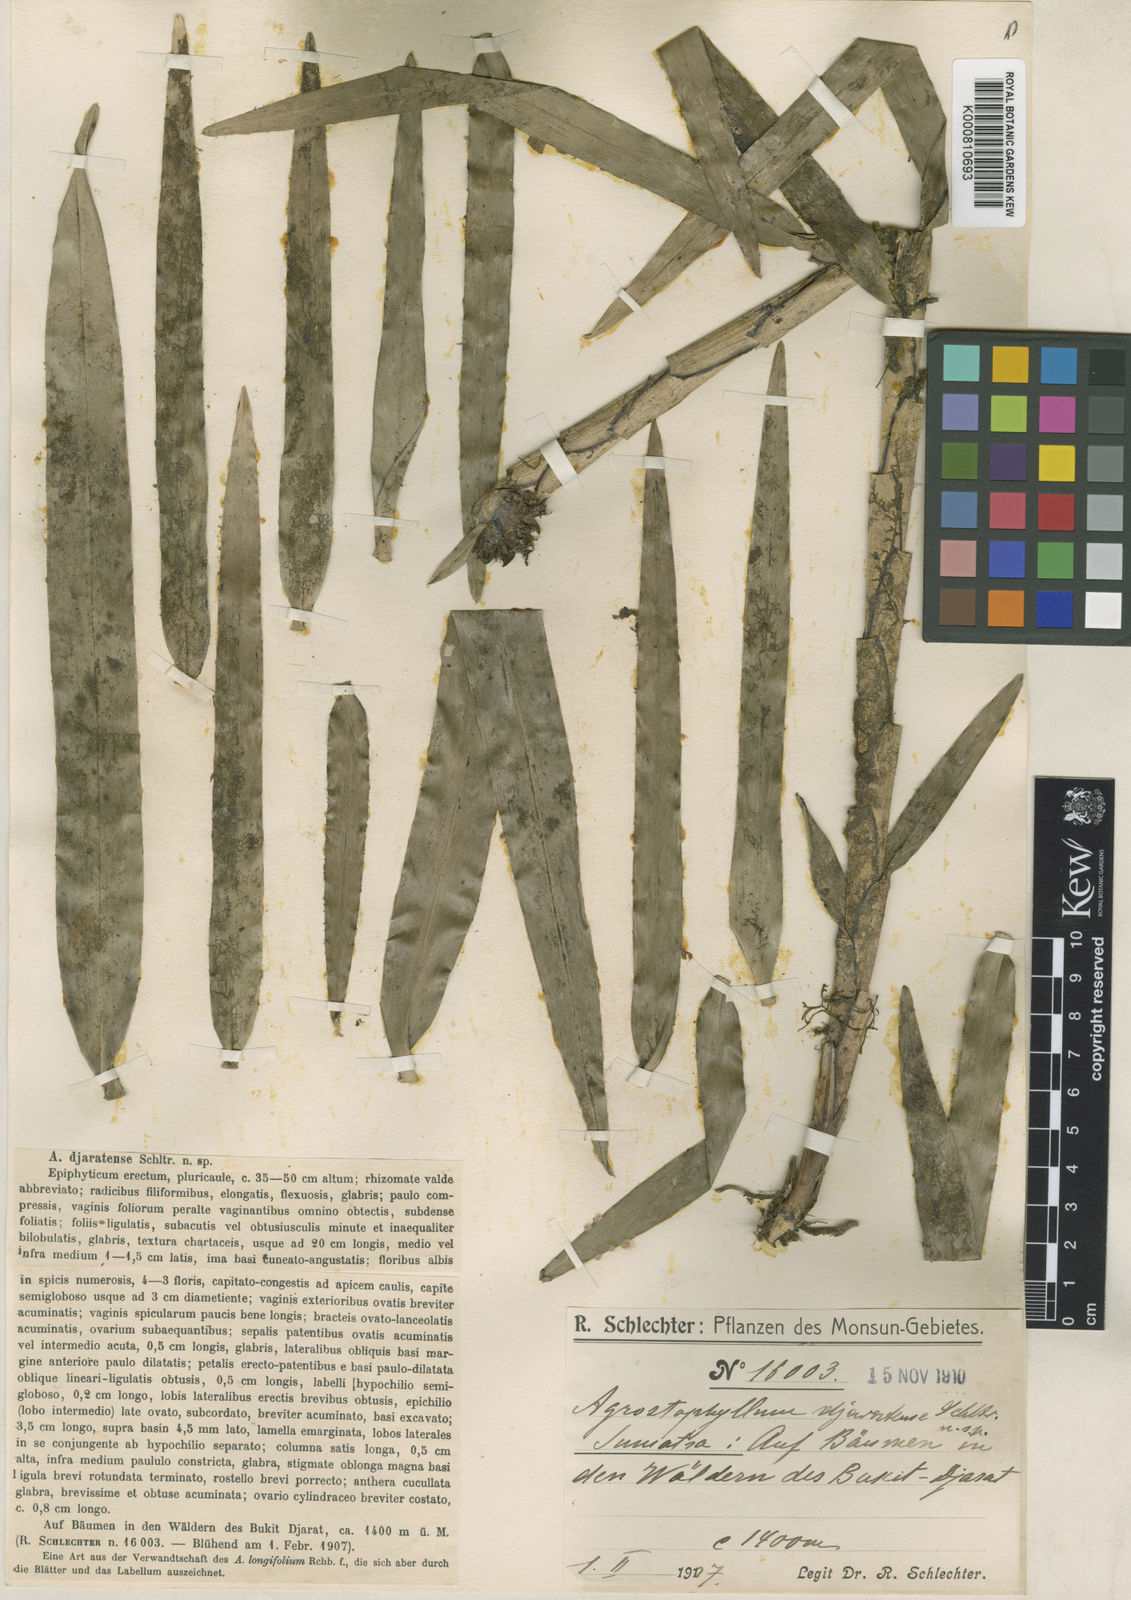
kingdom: Plantae
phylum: Tracheophyta
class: Liliopsida
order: Asparagales
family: Orchidaceae
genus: Agrostophyllum
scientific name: Agrostophyllum
